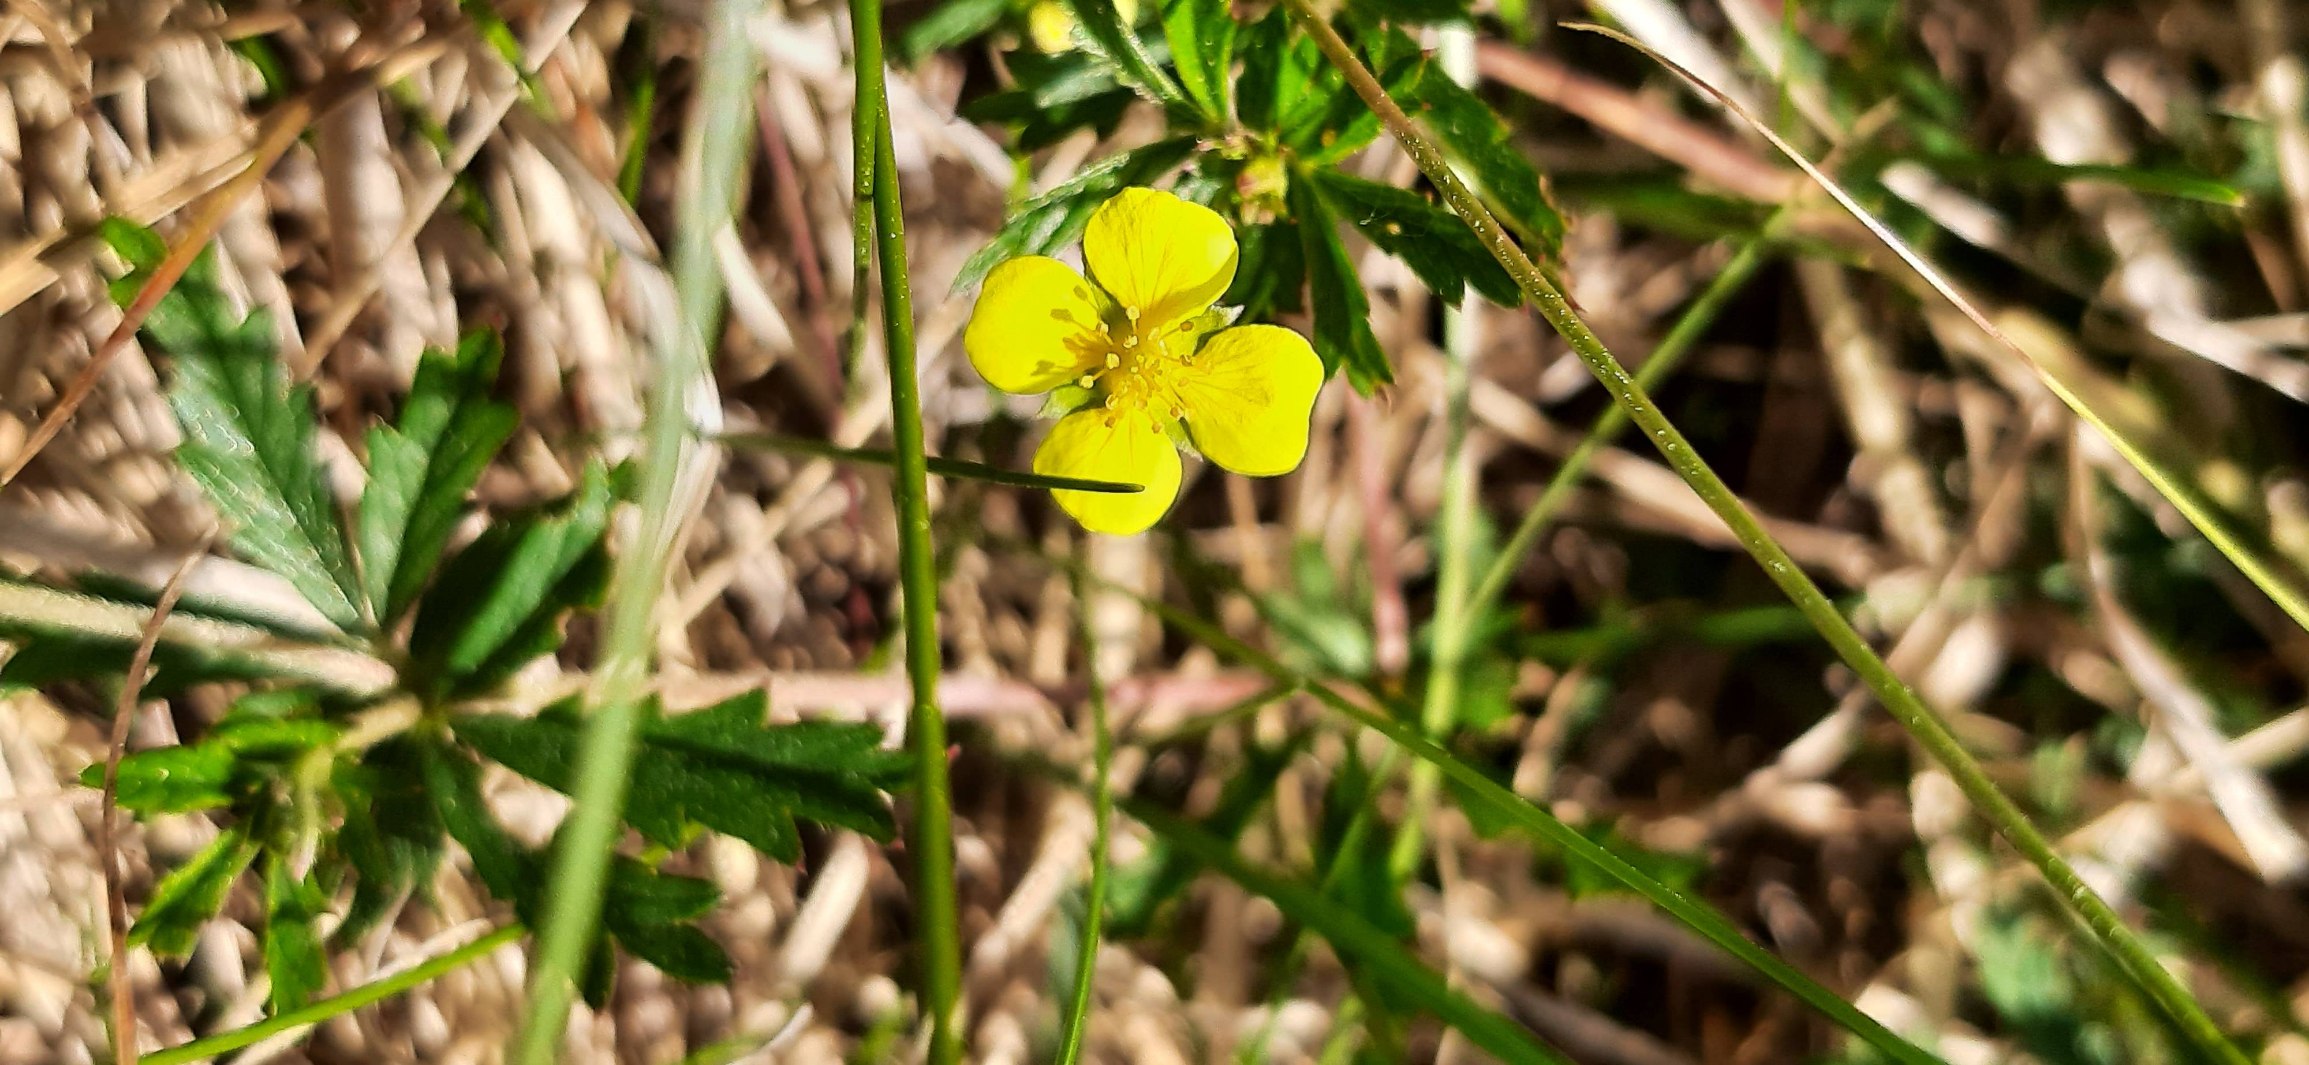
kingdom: Plantae
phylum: Tracheophyta
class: Magnoliopsida
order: Rosales
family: Rosaceae
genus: Potentilla
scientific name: Potentilla erecta
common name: Tormentil
